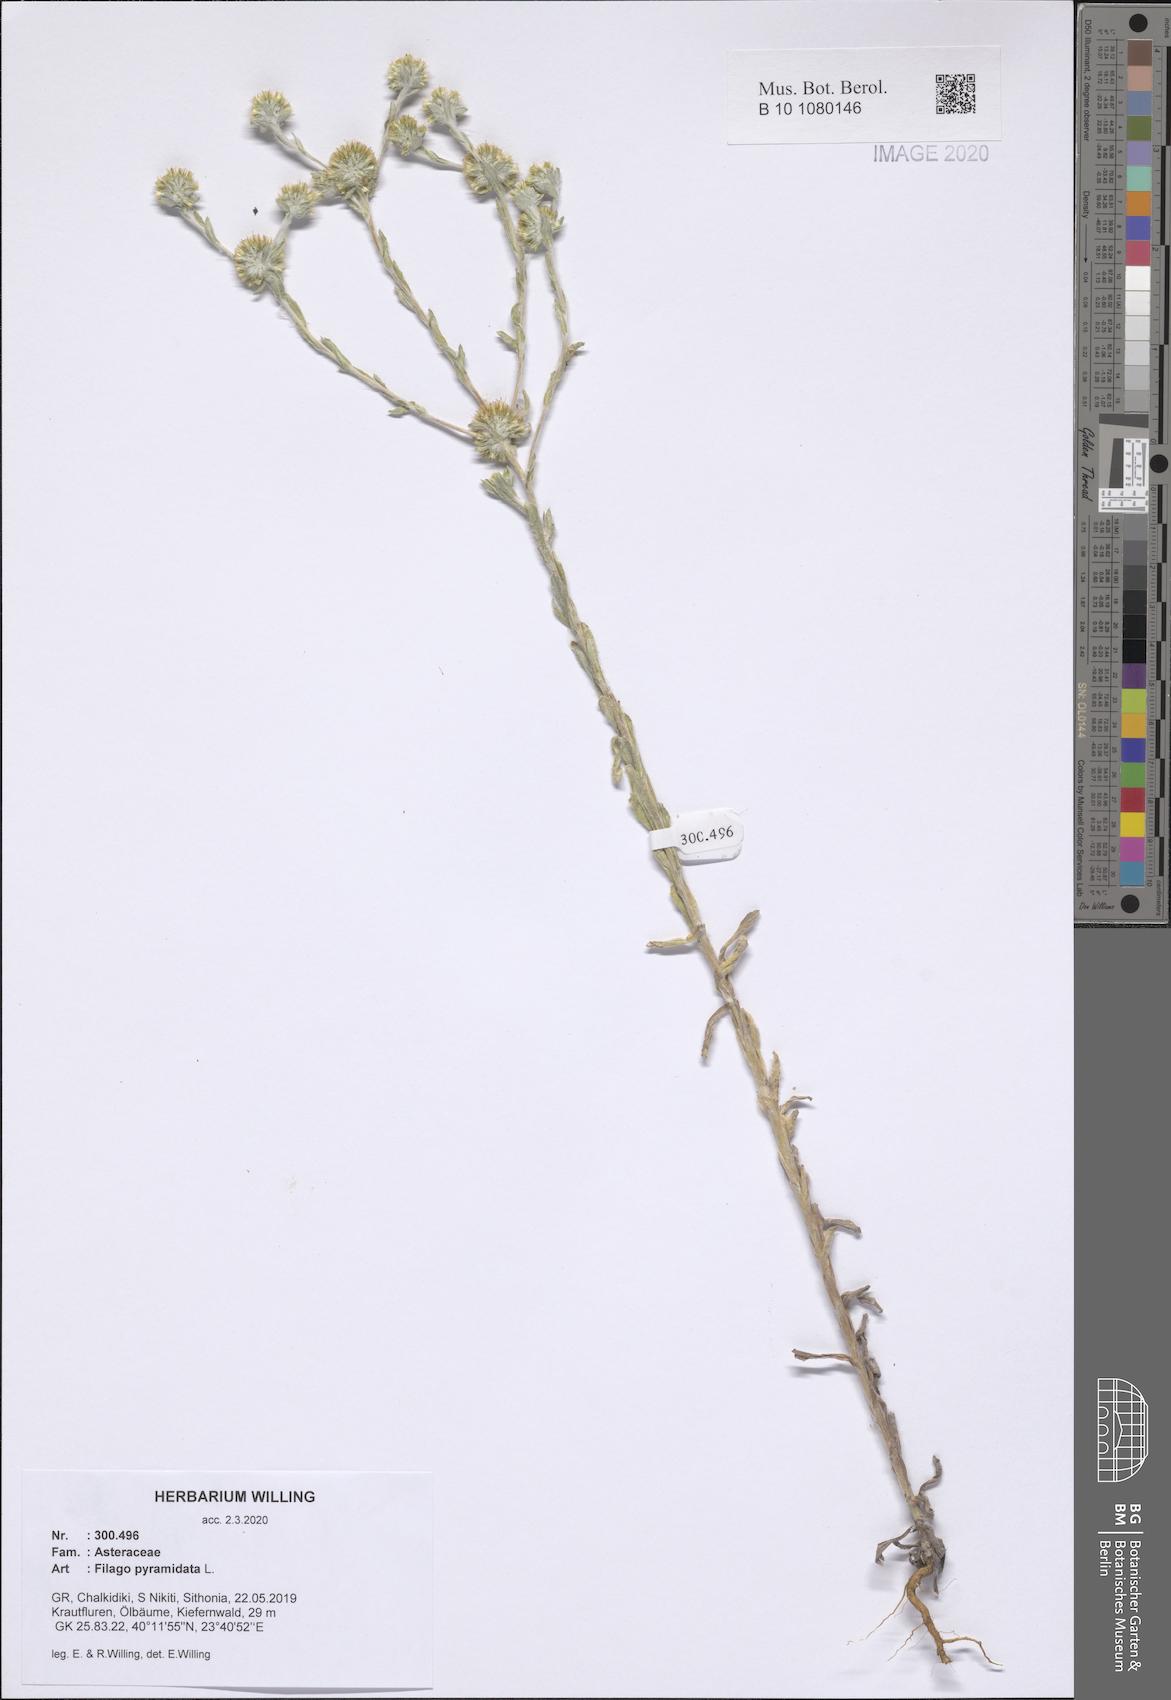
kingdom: Plantae
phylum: Tracheophyta
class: Magnoliopsida
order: Asterales
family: Asteraceae
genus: Filago
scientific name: Filago pyramidata
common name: Broad-leaved cudweed
